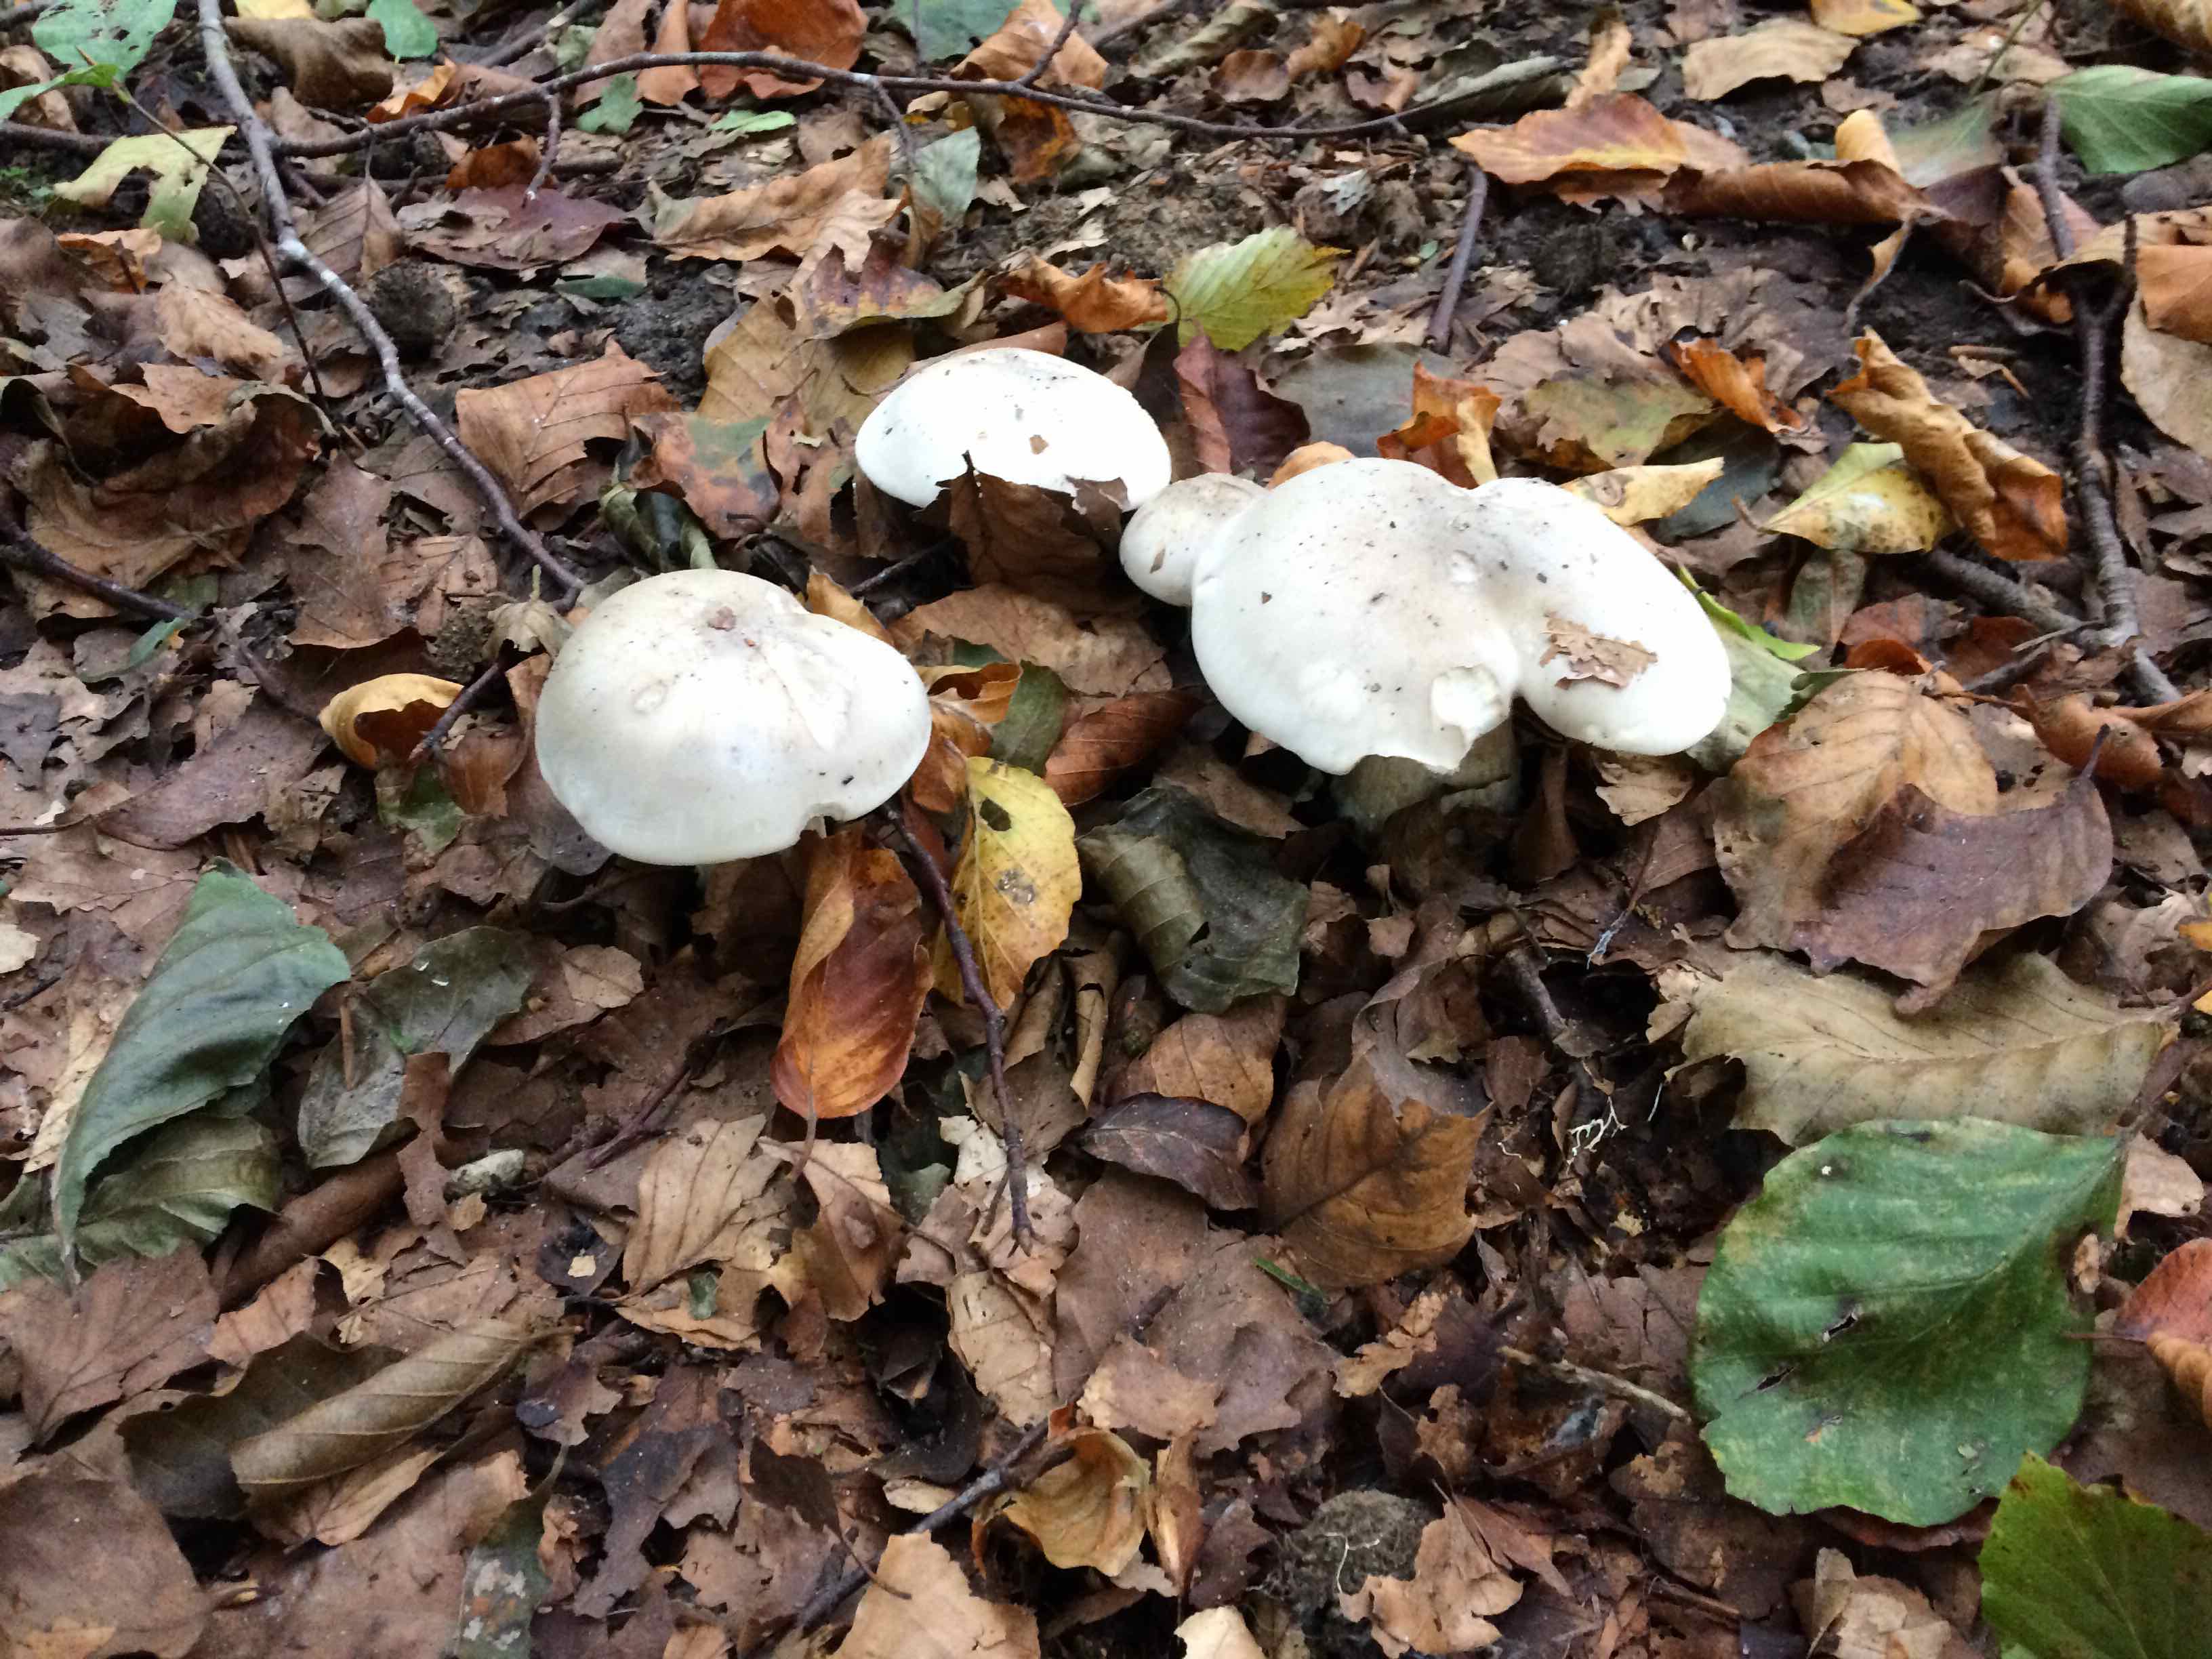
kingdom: Fungi
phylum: Basidiomycota
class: Agaricomycetes
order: Agaricales
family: Tricholomataceae
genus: Clitocybe
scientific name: Clitocybe nebularis
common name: tåge-tragthat
